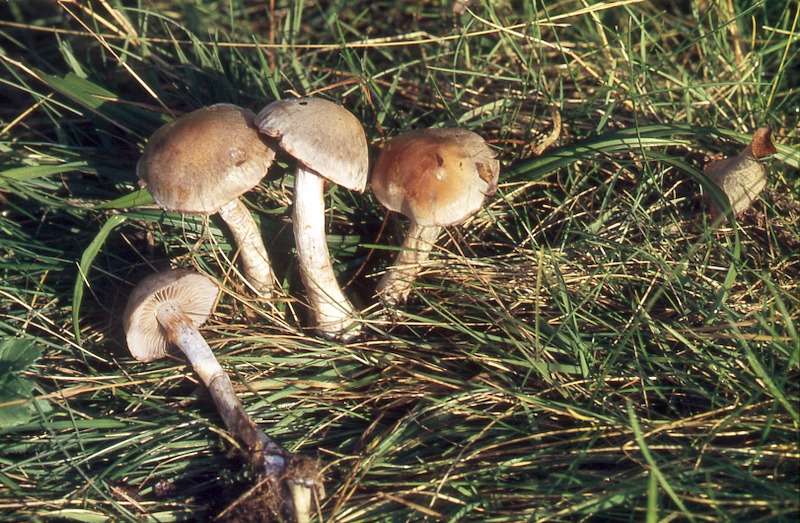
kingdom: Fungi
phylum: Basidiomycota
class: Agaricomycetes
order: Agaricales
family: Cortinariaceae
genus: Cortinarius
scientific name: Cortinarius
